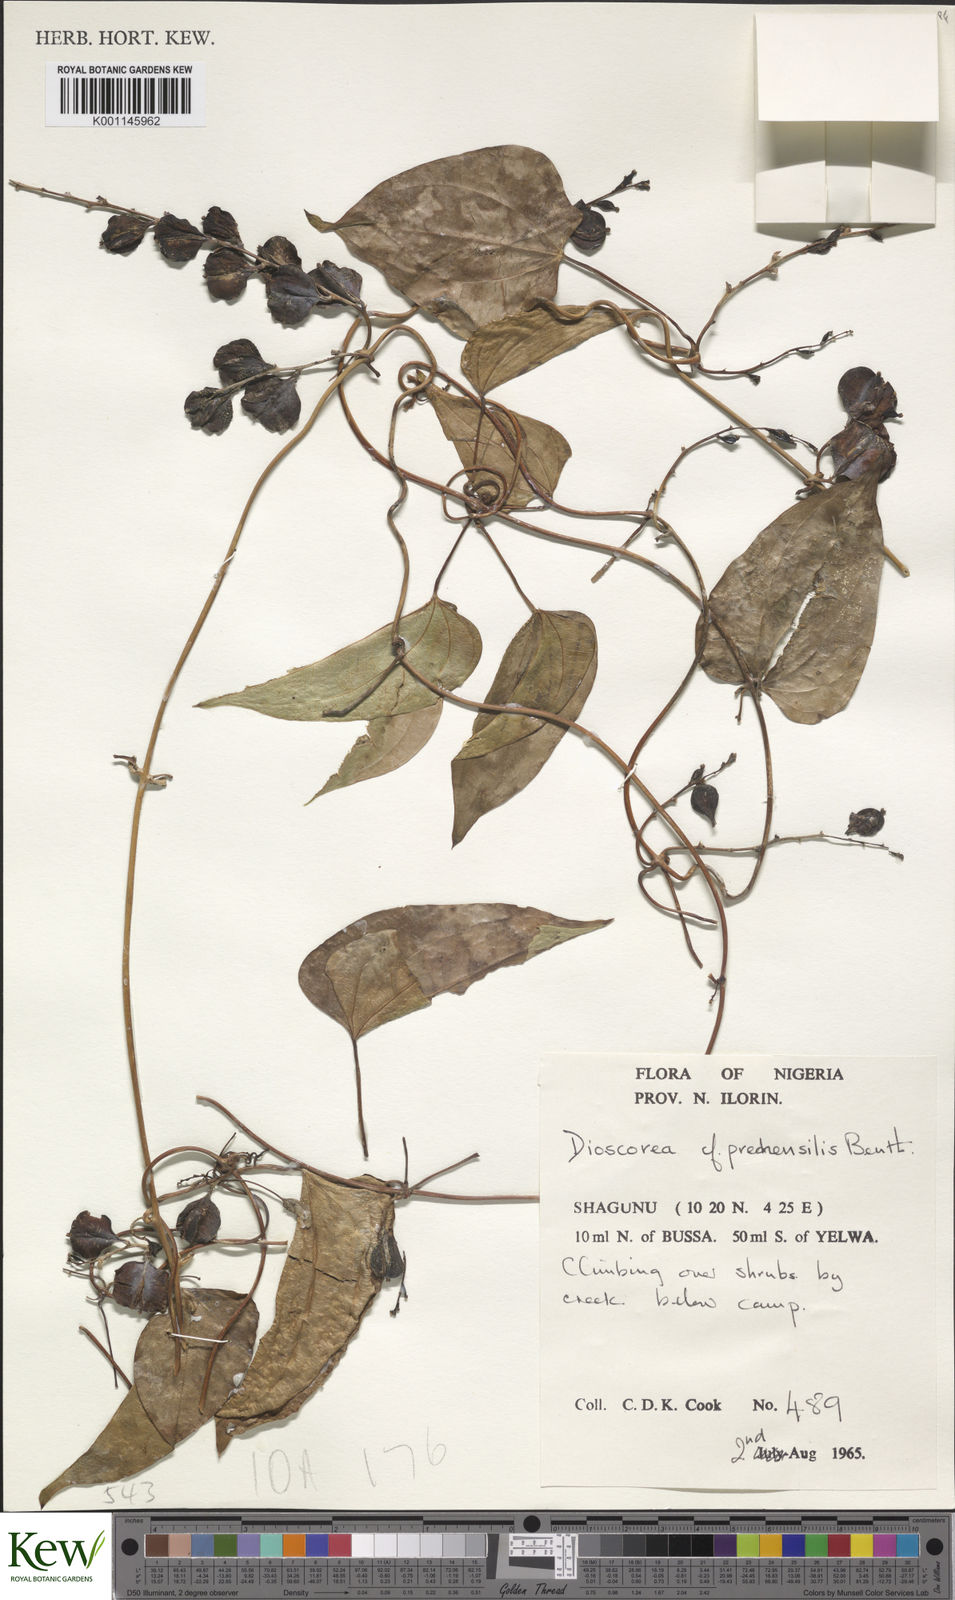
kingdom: Plantae
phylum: Tracheophyta
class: Liliopsida
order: Dioscoreales
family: Dioscoreaceae
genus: Dioscorea
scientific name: Dioscorea praehensilis
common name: Bush yam
